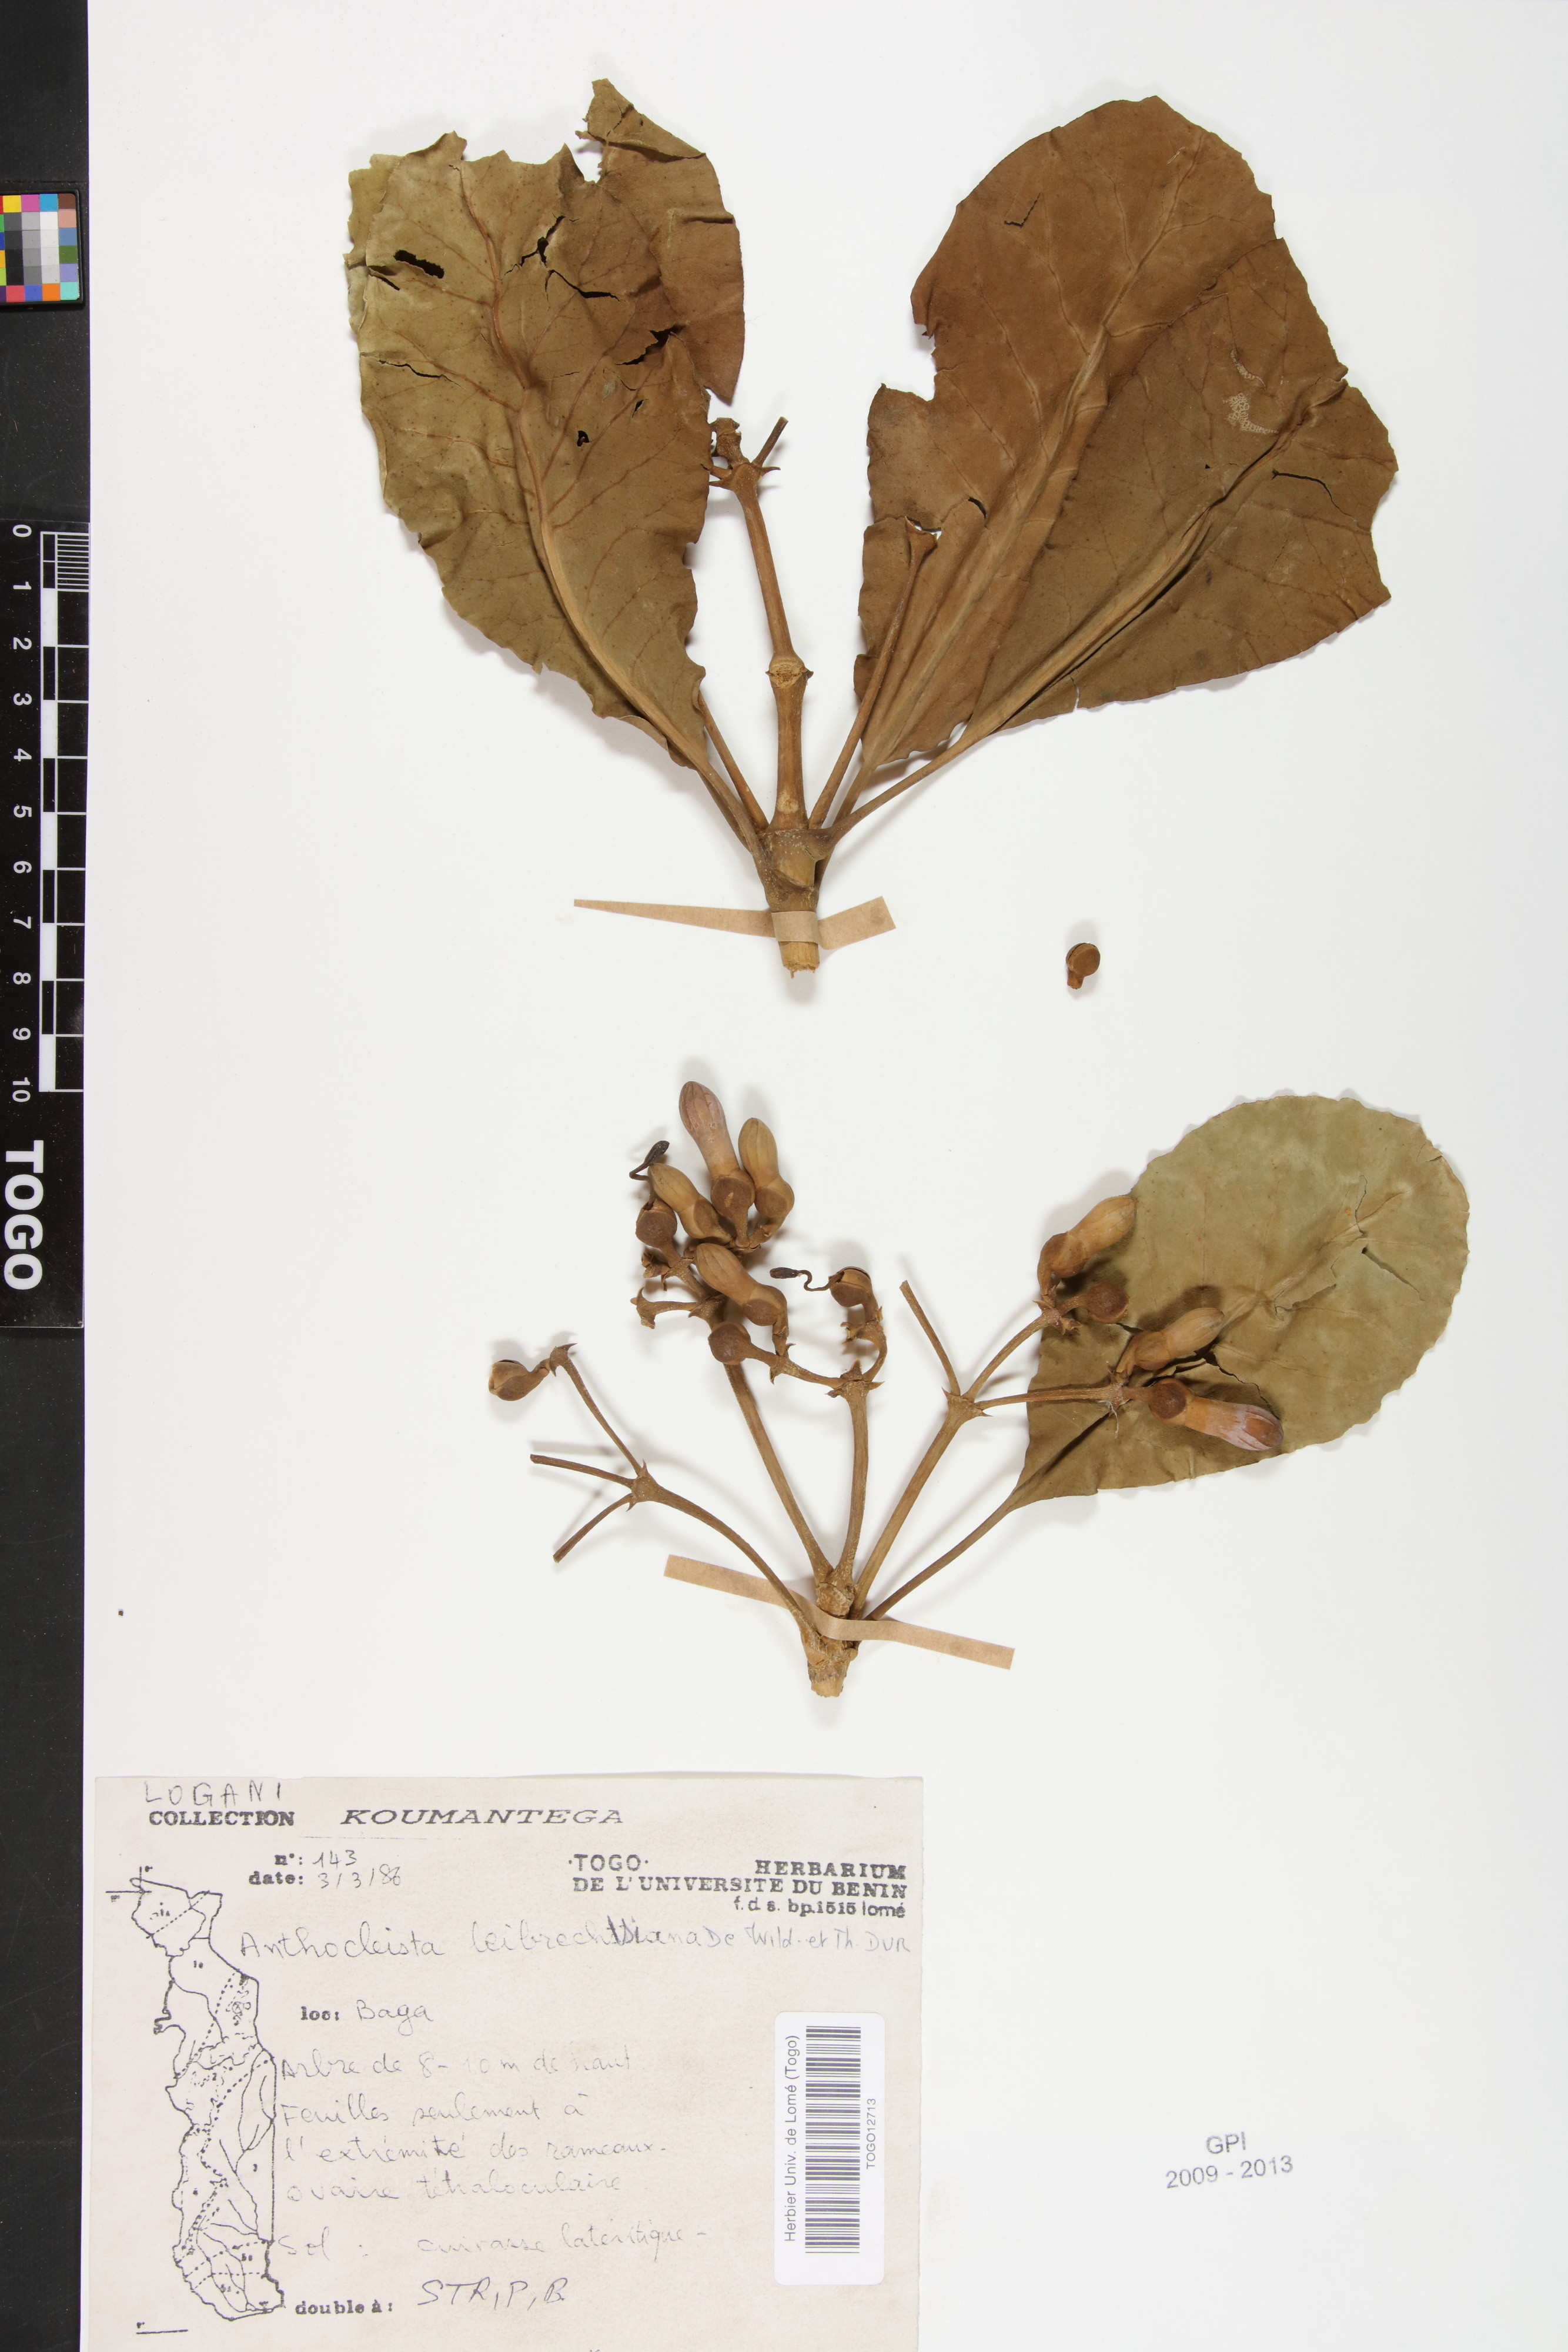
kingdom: Plantae
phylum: Tracheophyta
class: Magnoliopsida
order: Gentianales
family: Gentianaceae
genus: Anthocleista
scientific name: Anthocleista liebrechtsiana
